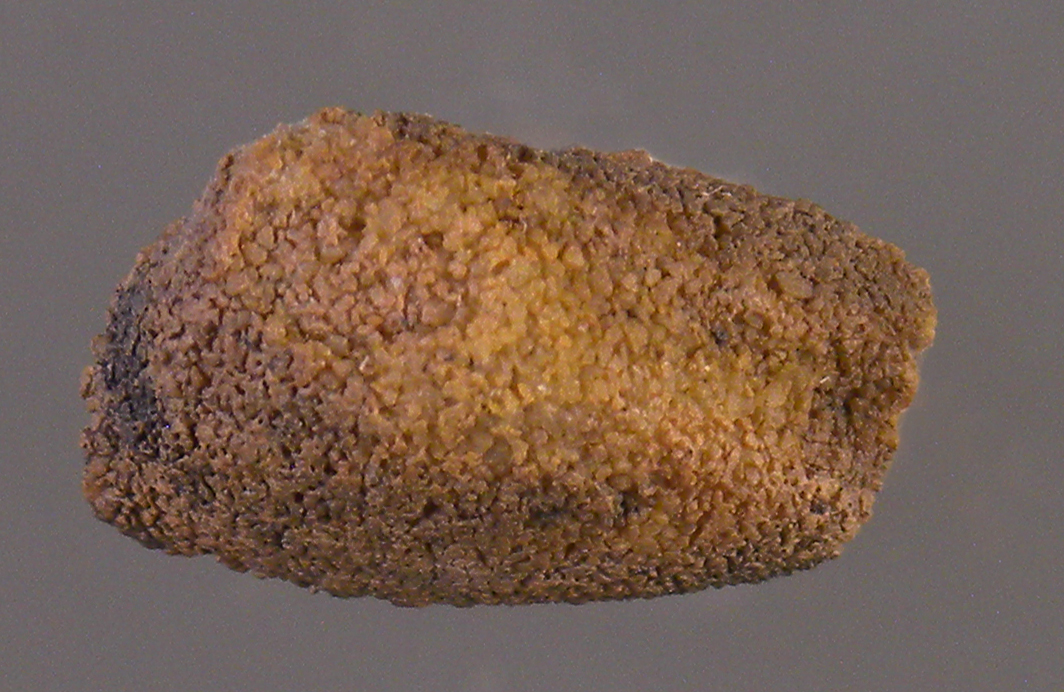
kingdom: Animalia
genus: Koenenia
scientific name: Koenenia
